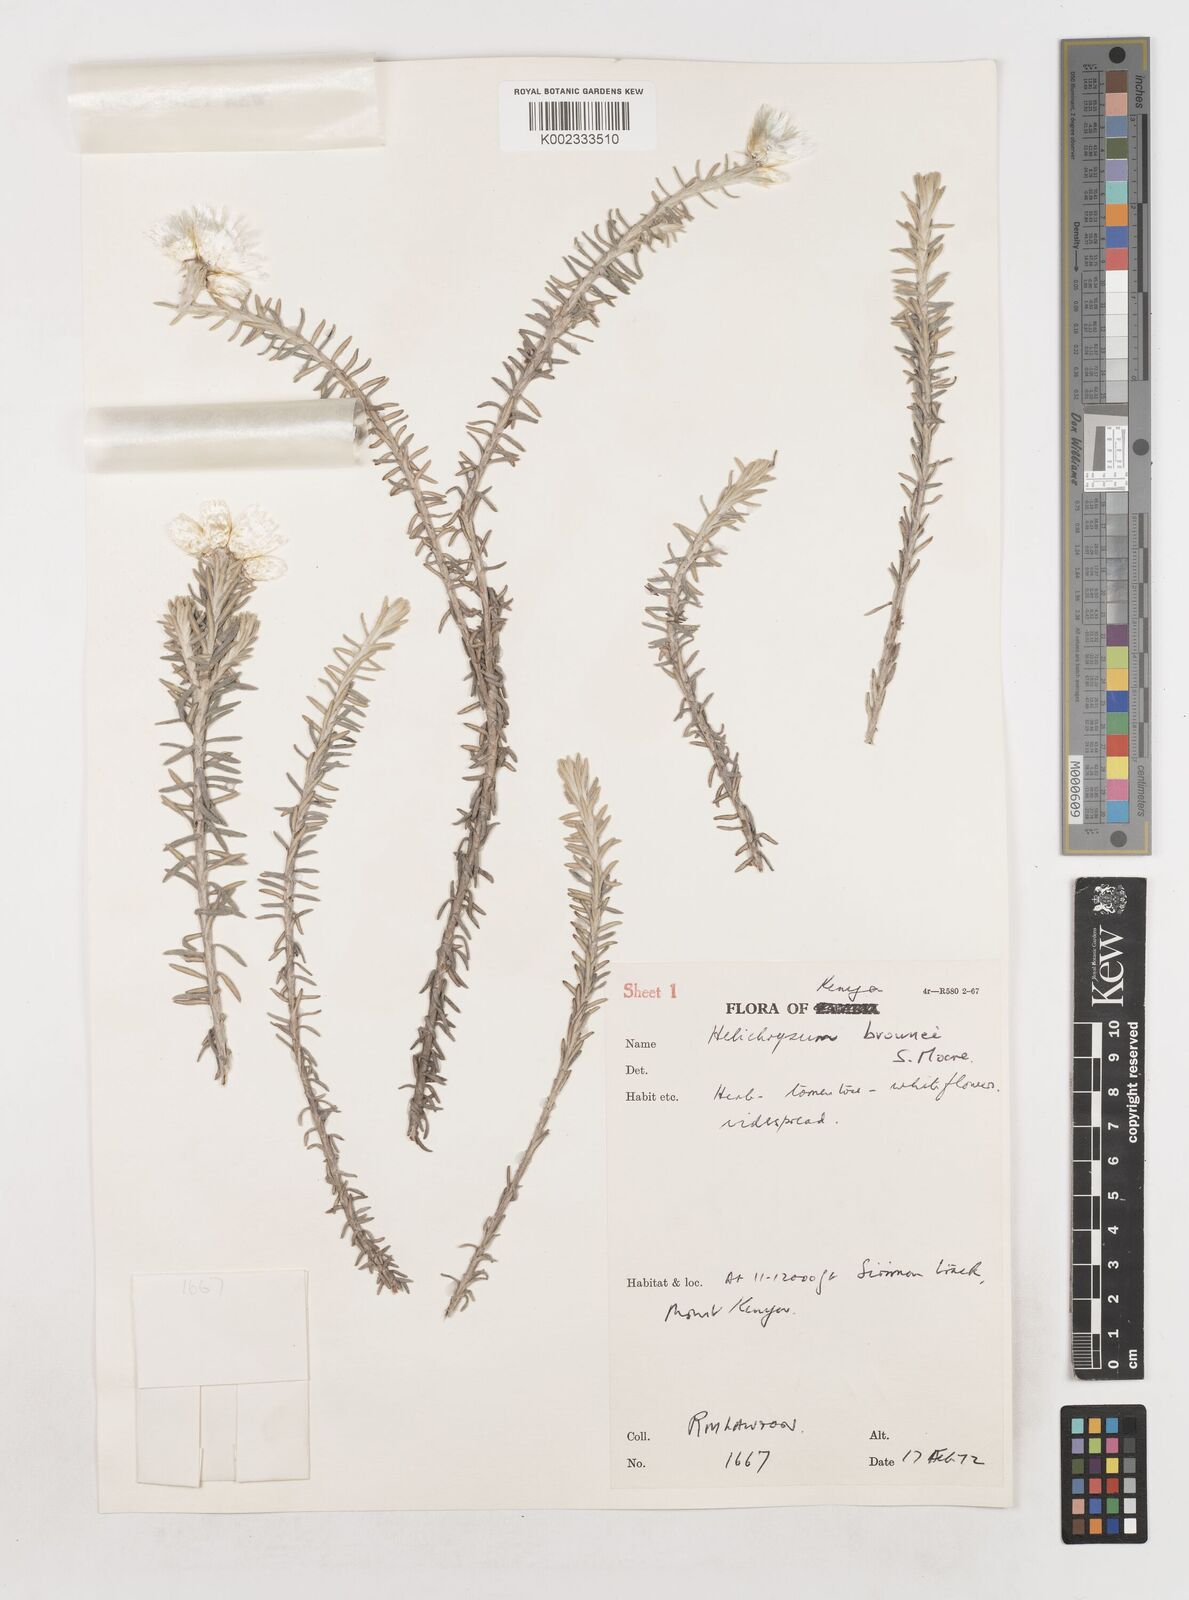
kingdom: Plantae
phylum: Tracheophyta
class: Magnoliopsida
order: Asterales
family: Asteraceae
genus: Helichrysum
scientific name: Helichrysum brownei
